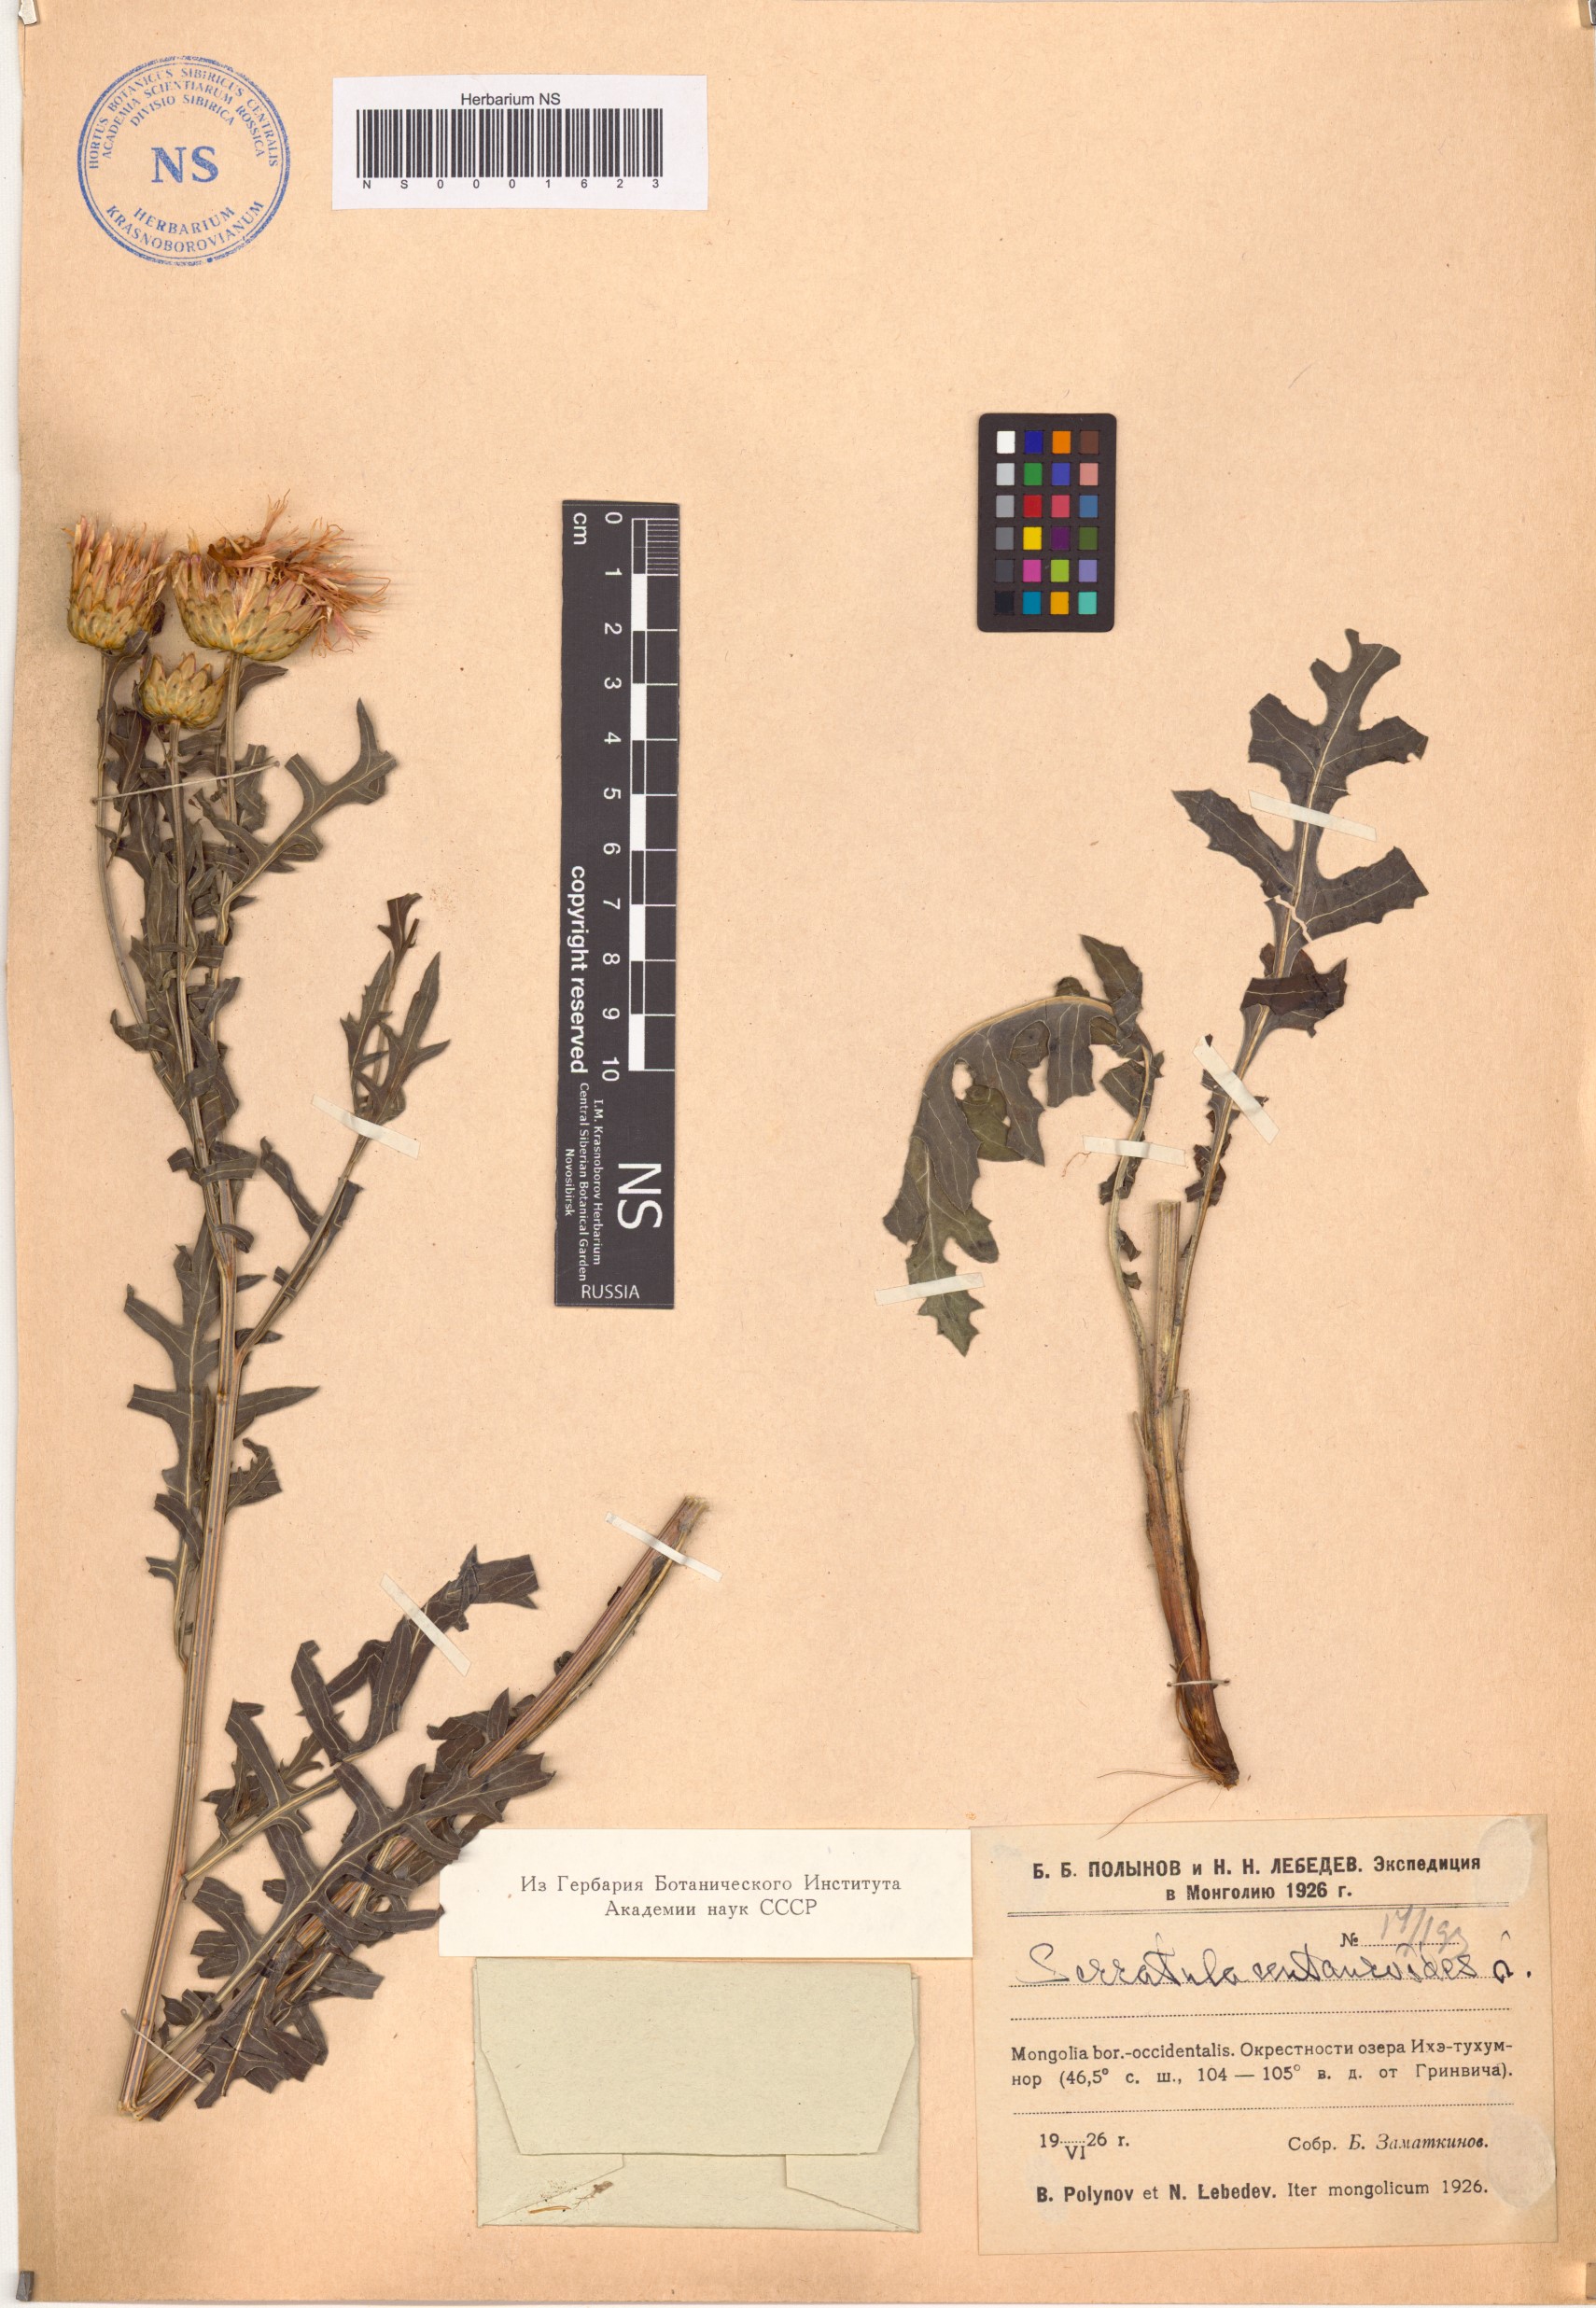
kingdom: Plantae
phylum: Tracheophyta
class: Magnoliopsida
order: Asterales
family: Asteraceae
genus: Klasea
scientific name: Klasea centauroides
